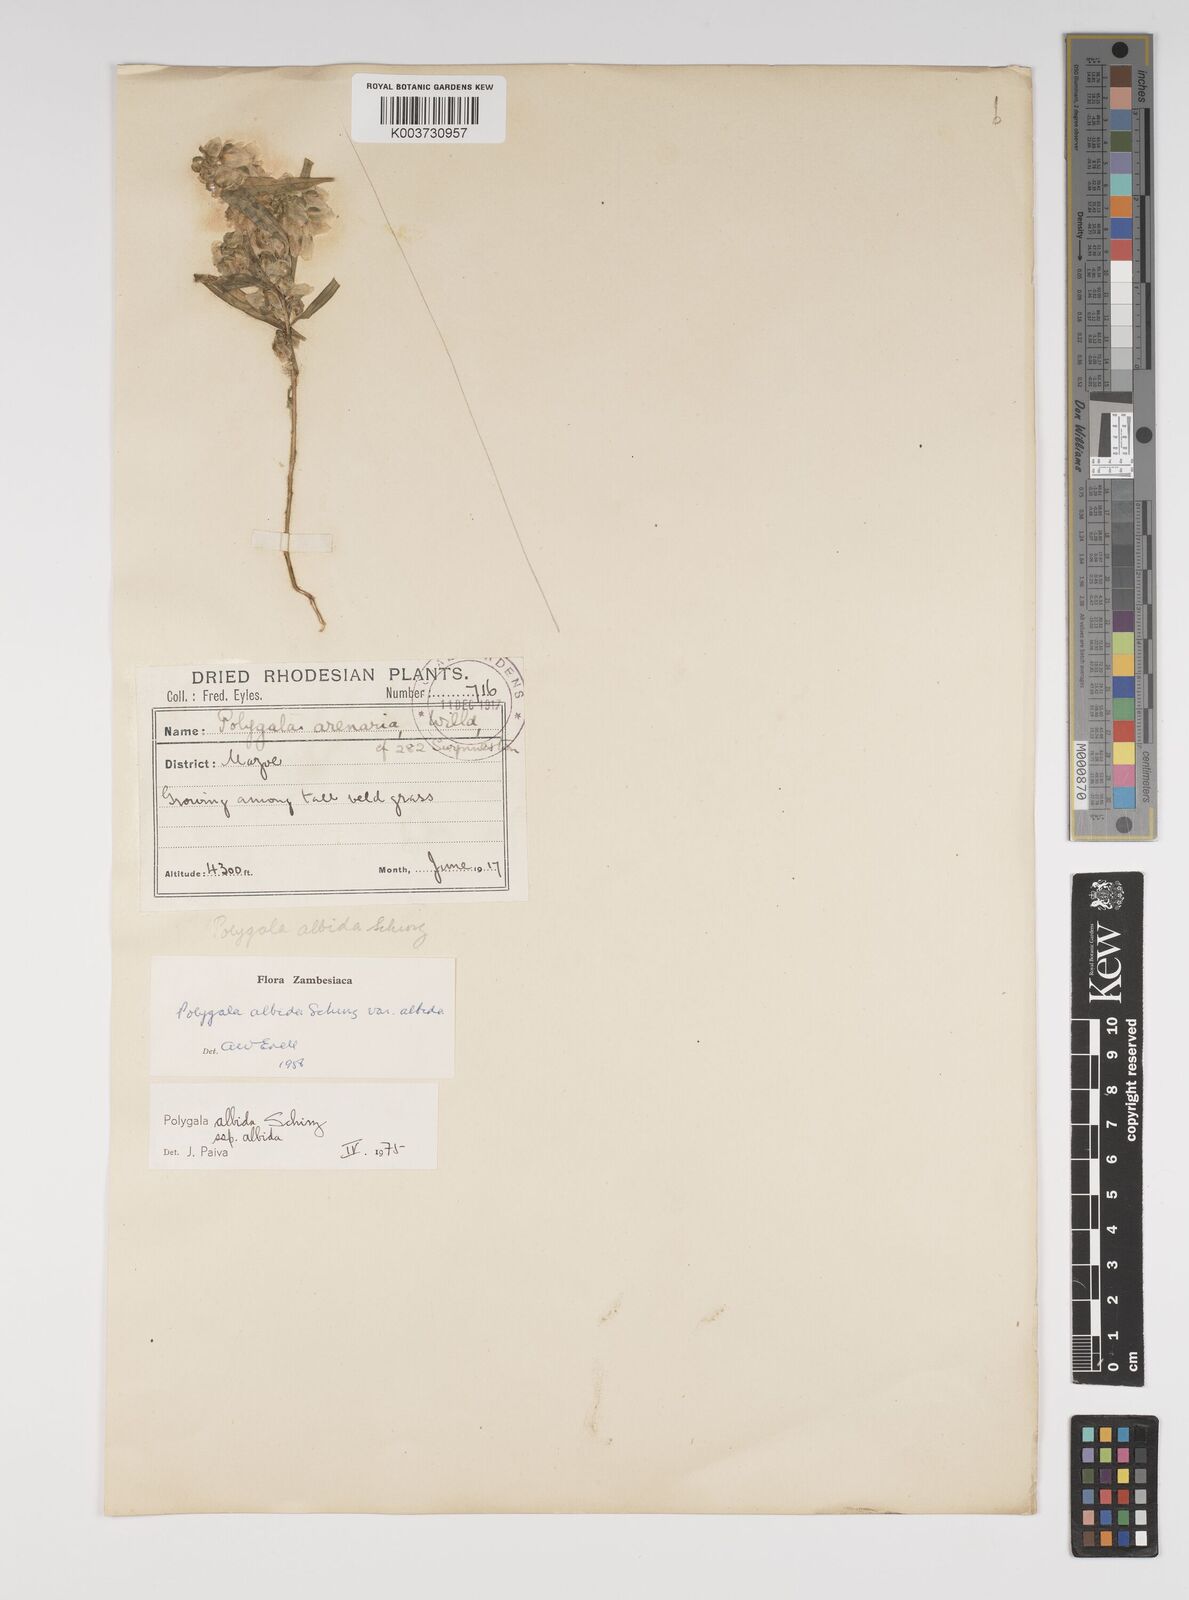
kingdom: Plantae
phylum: Tracheophyta
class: Magnoliopsida
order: Fabales
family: Polygalaceae
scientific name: Polygalaceae
